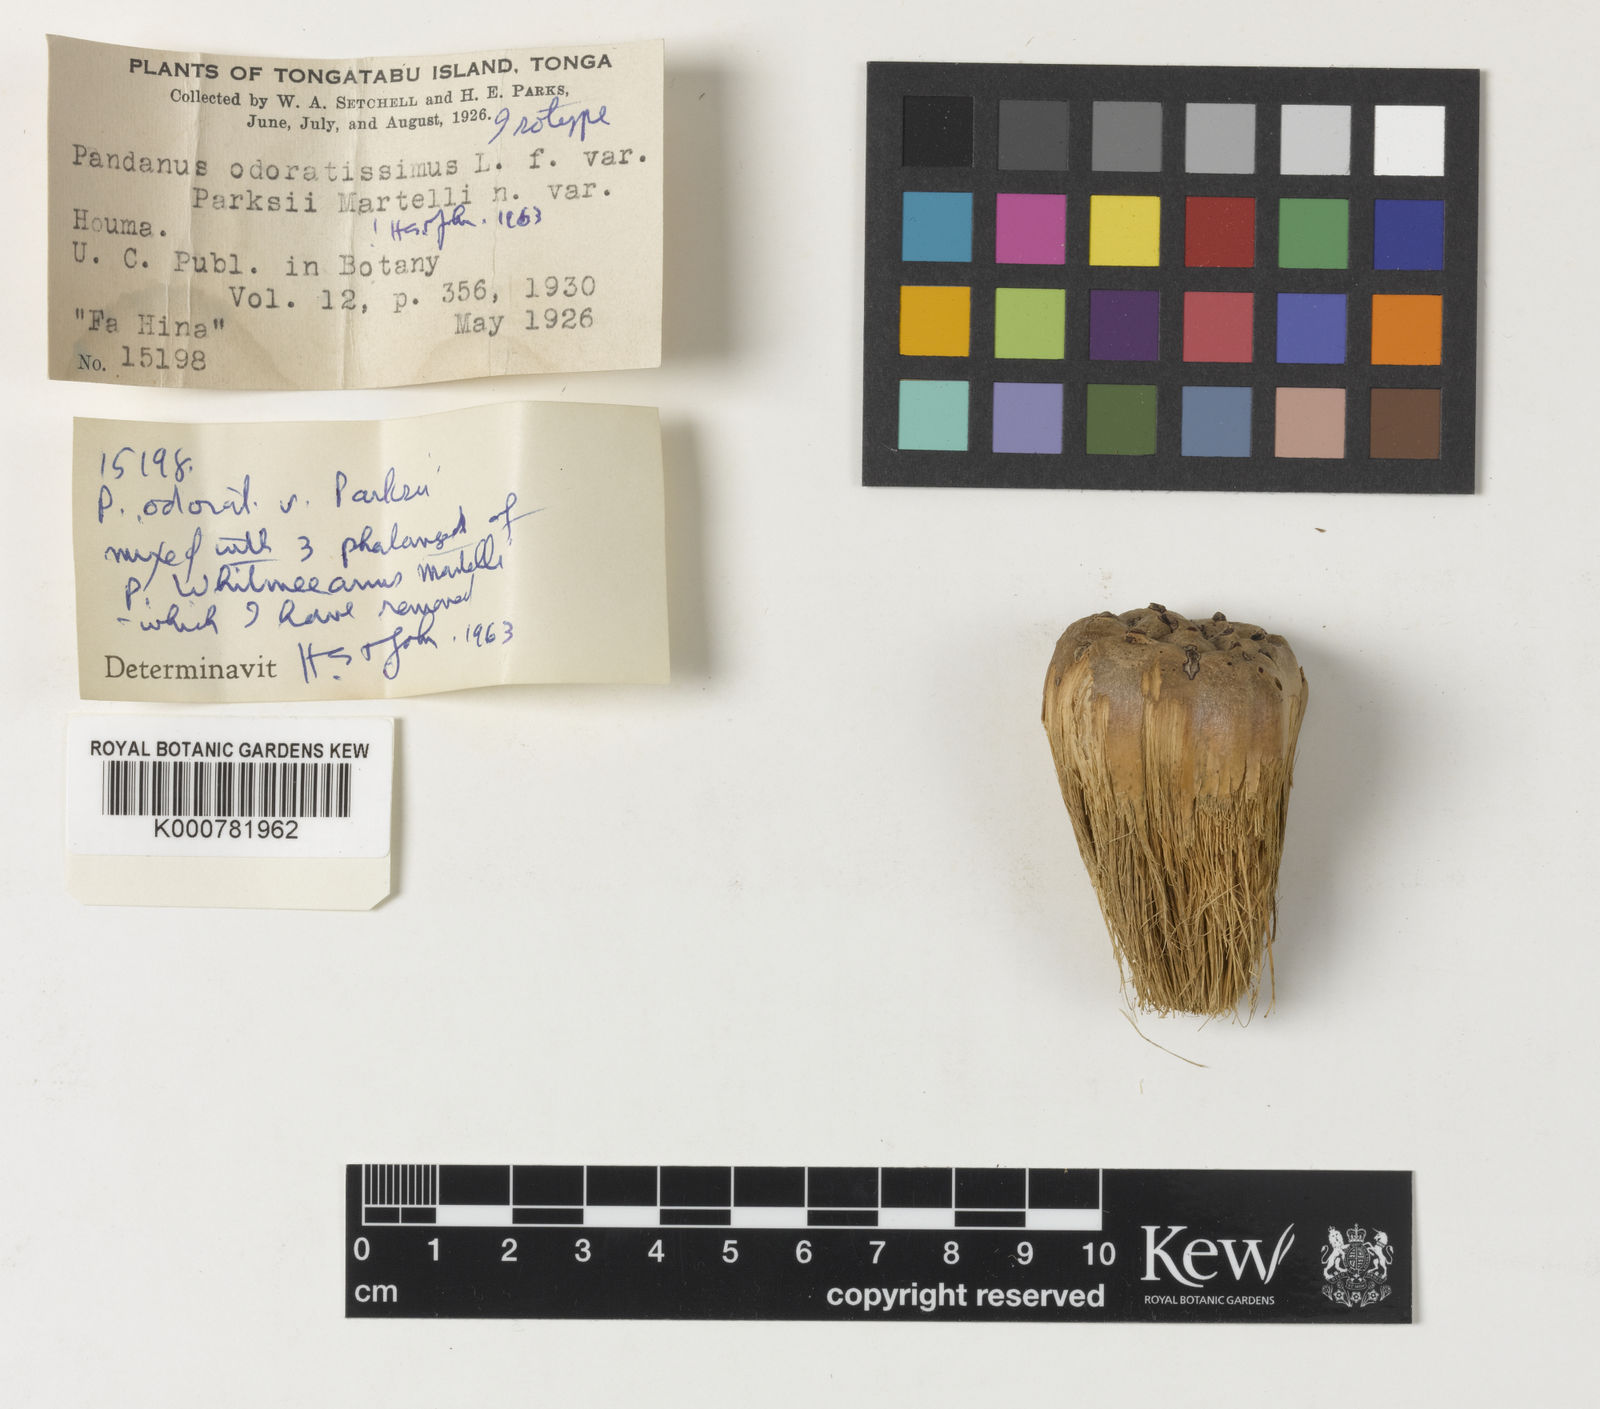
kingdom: Plantae
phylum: Tracheophyta
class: Liliopsida
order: Pandanales
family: Pandanaceae
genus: Pandanus
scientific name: Pandanus odorifer
